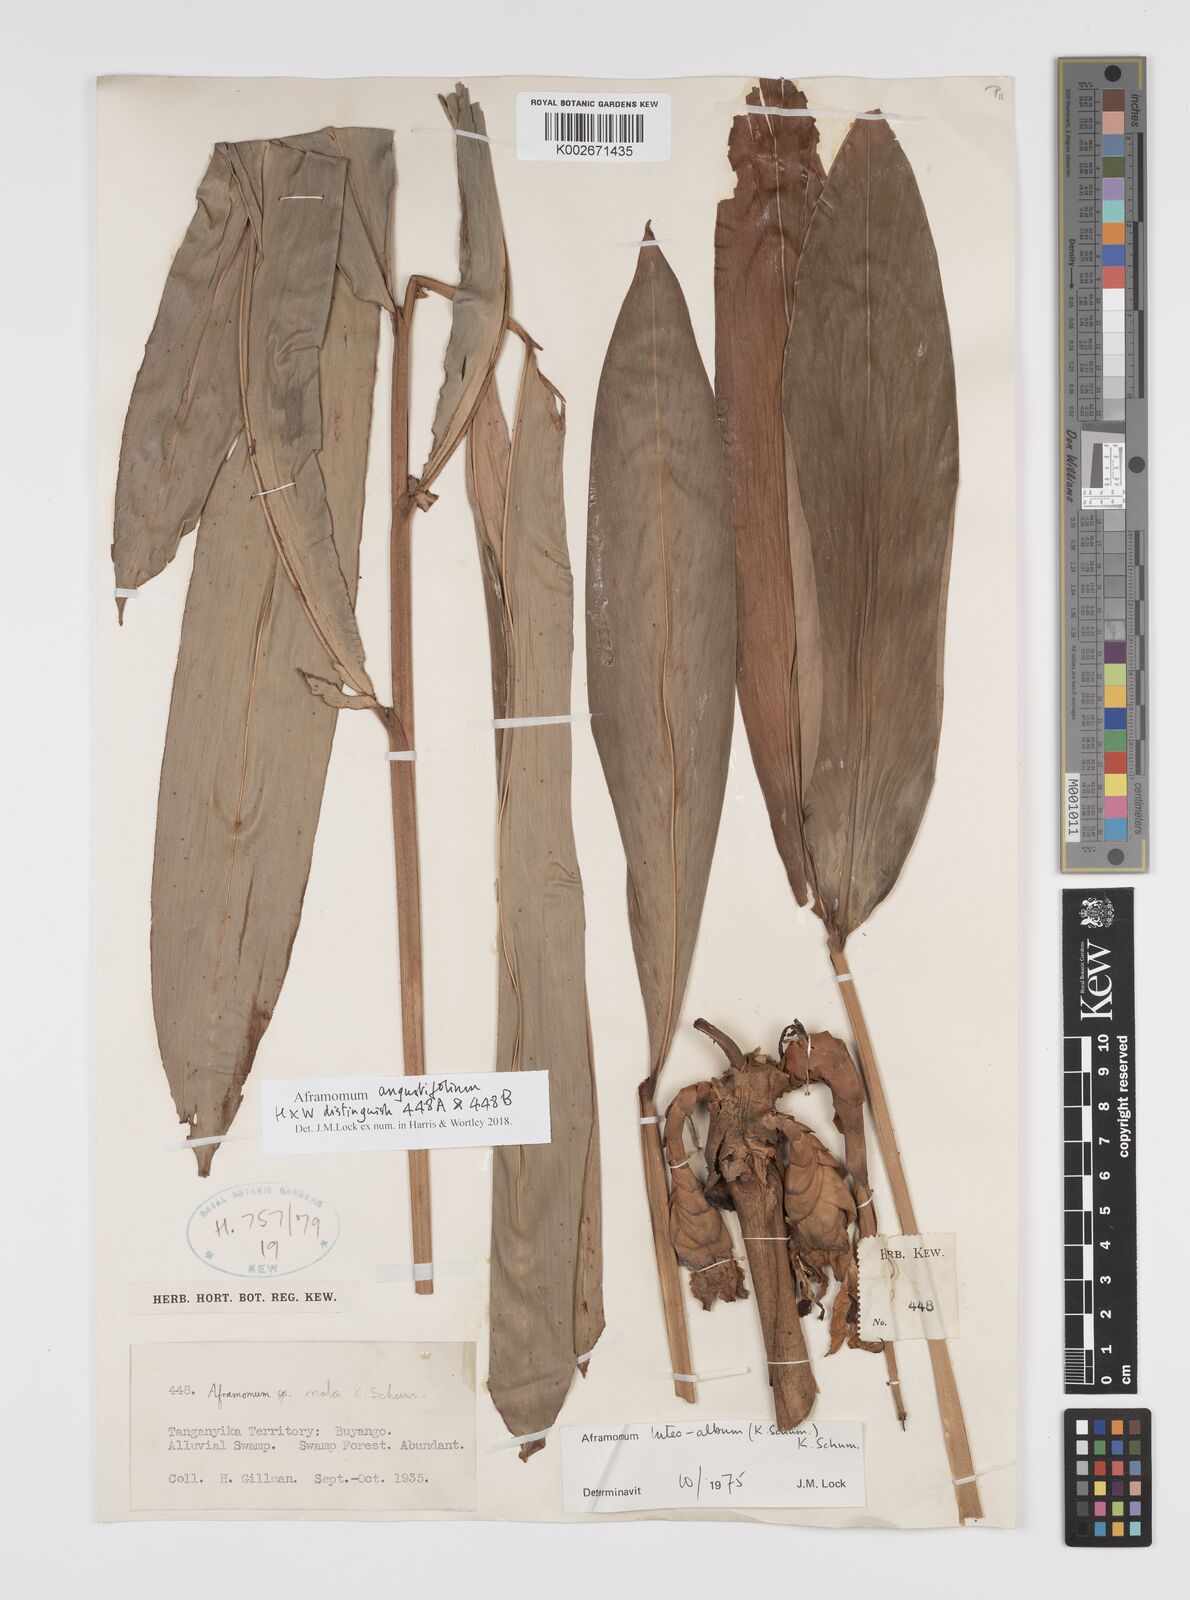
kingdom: Plantae
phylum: Tracheophyta
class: Liliopsida
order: Zingiberales
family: Zingiberaceae
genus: Aframomum
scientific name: Aframomum angustifolium
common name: Guinea grains
